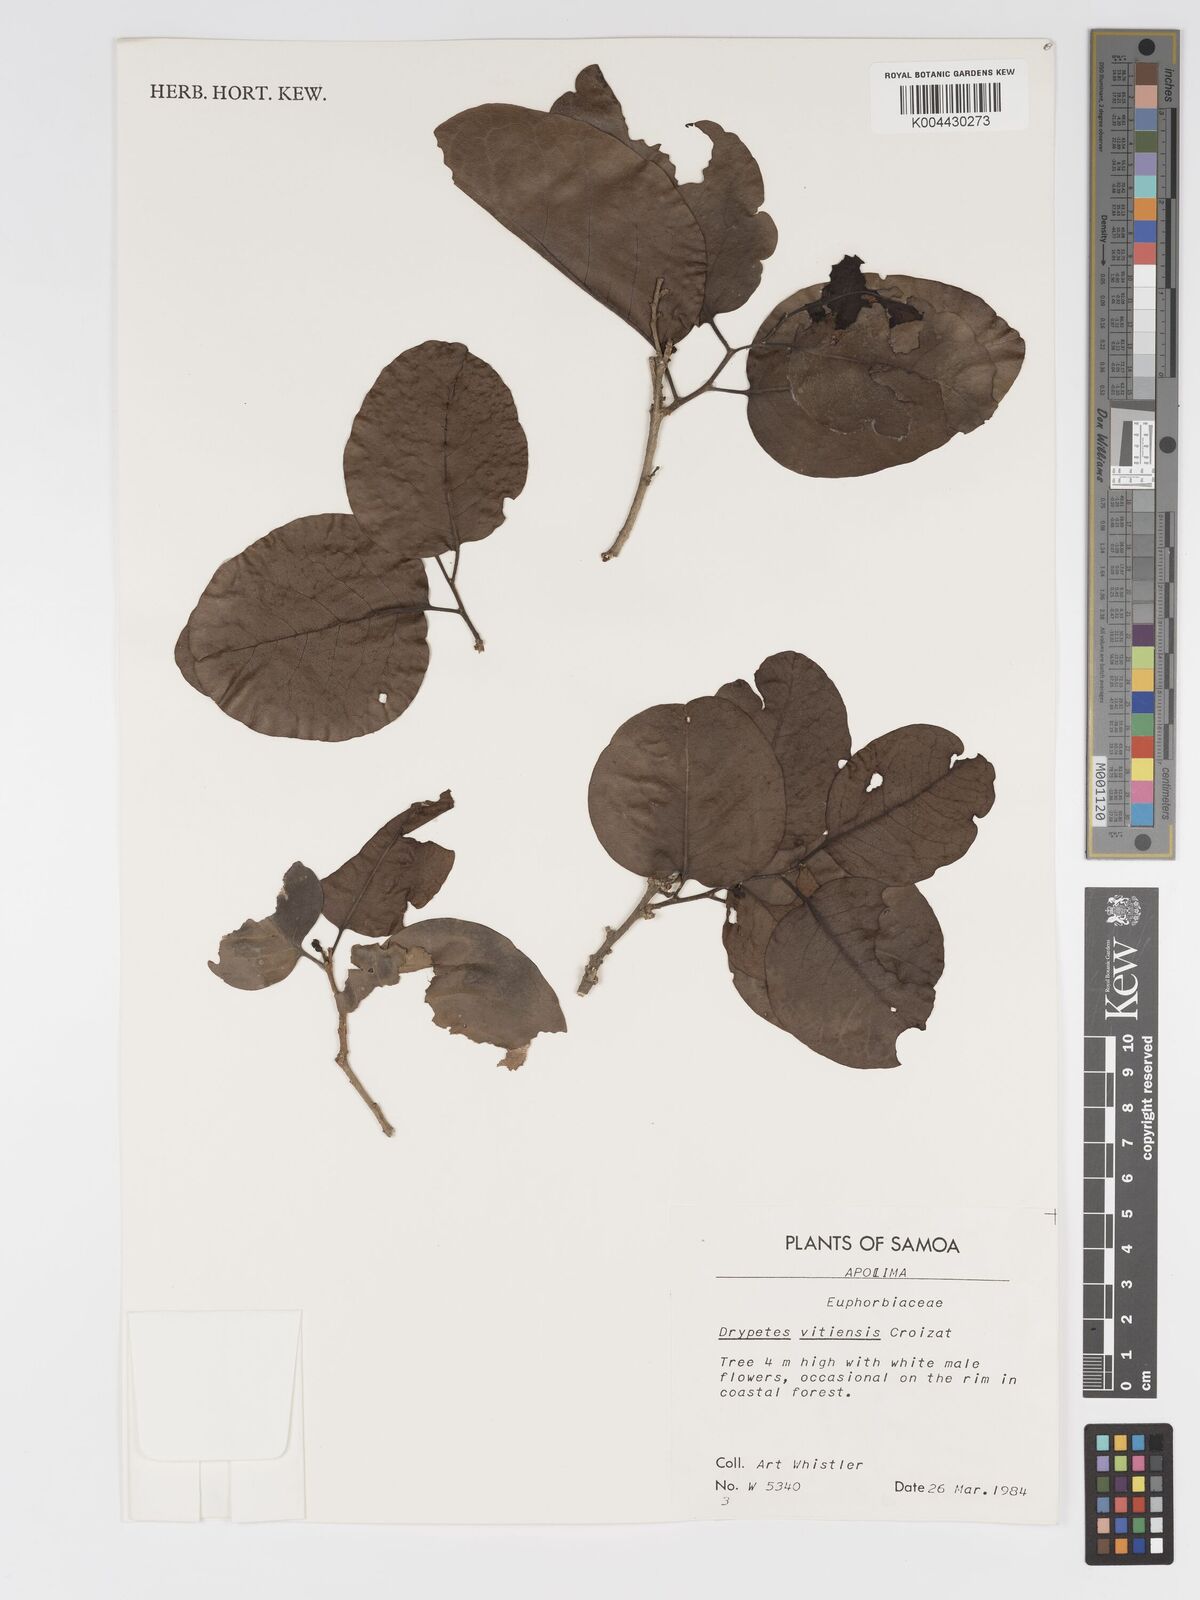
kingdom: Plantae
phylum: Tracheophyta
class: Magnoliopsida
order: Malpighiales
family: Putranjivaceae
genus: Drypetes
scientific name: Drypetes vitiensis
